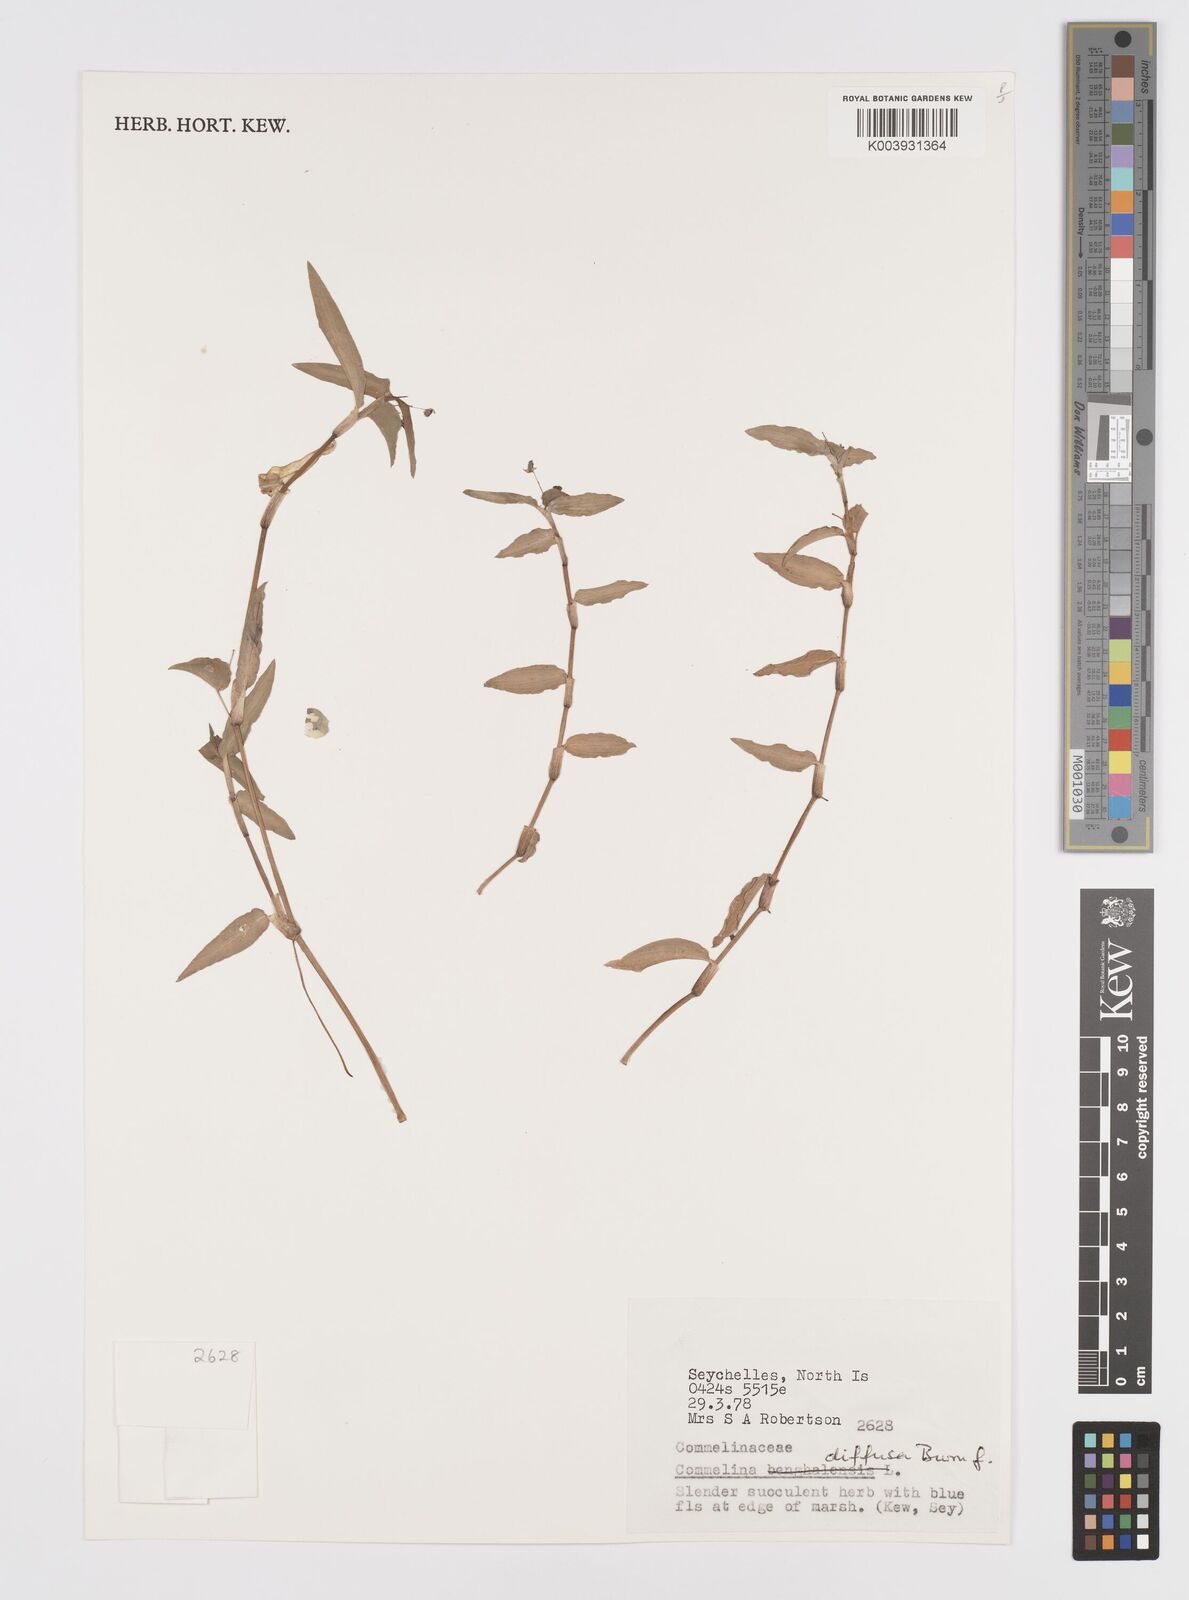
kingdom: Plantae
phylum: Tracheophyta
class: Liliopsida
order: Commelinales
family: Commelinaceae
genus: Murdannia
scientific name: Murdannia nudiflora
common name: Nakedstem dewflower
